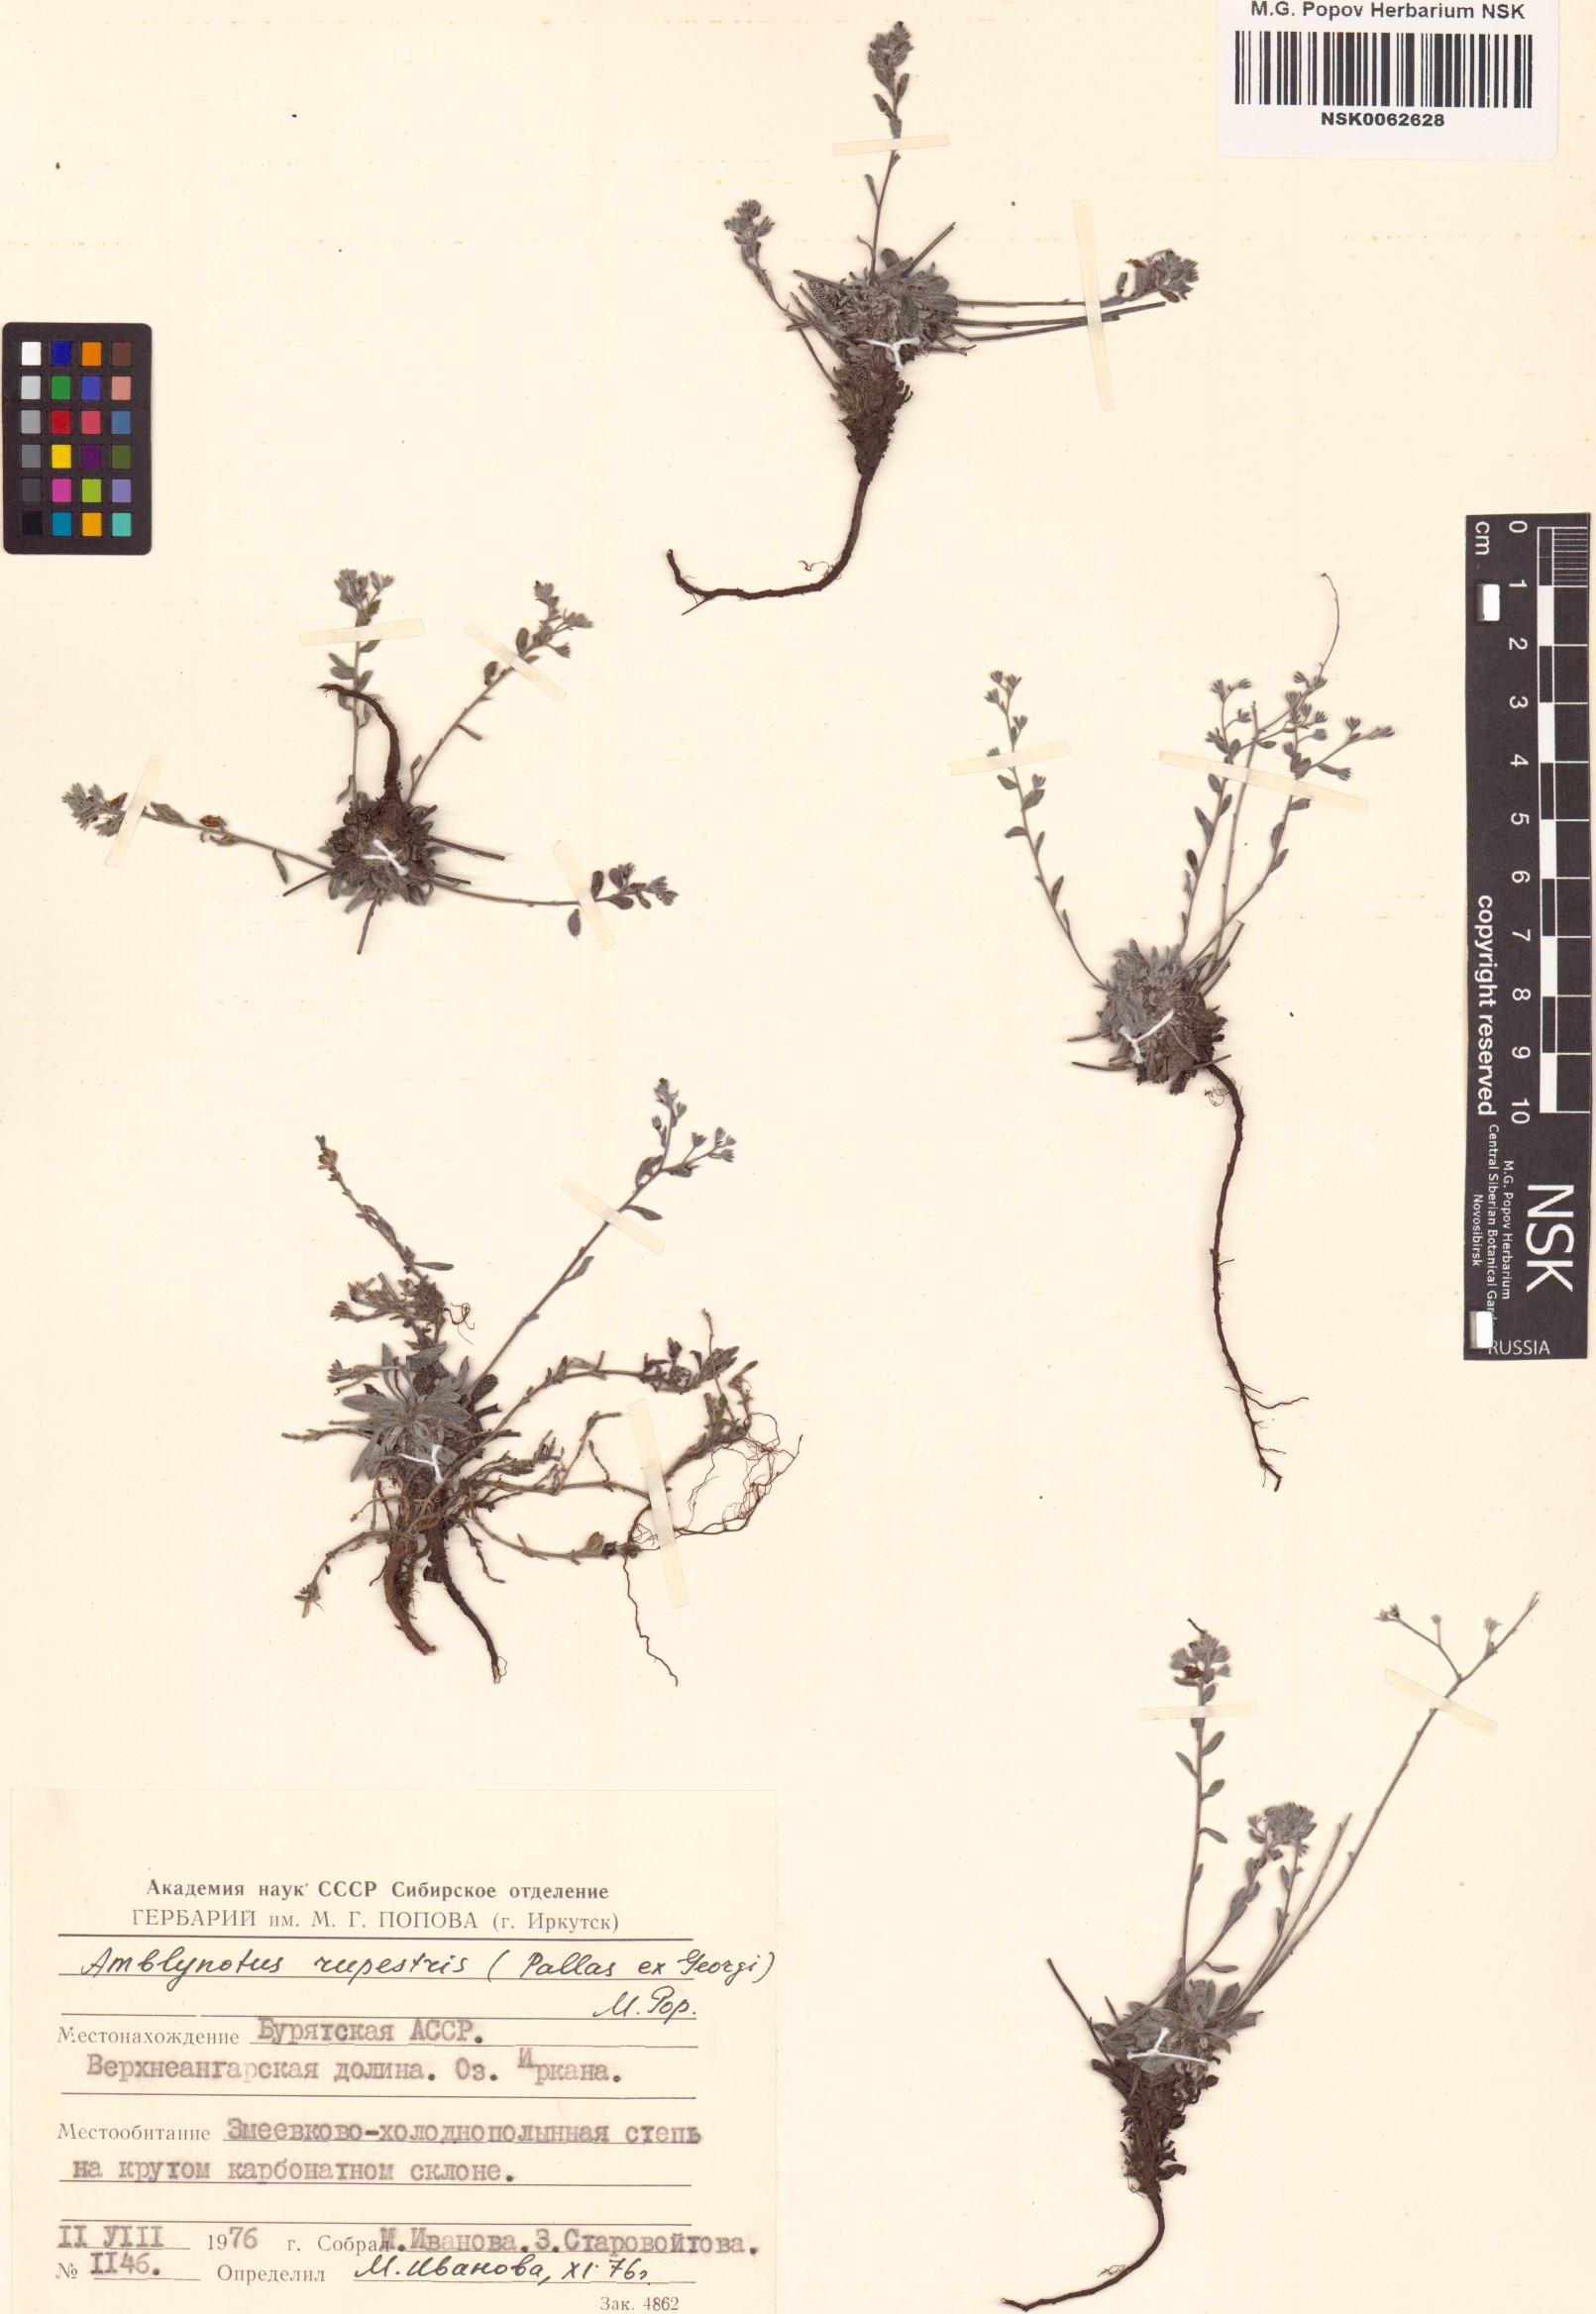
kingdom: Plantae
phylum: Tracheophyta
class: Magnoliopsida
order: Boraginales
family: Boraginaceae
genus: Eritrichium
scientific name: Eritrichium rupestre
